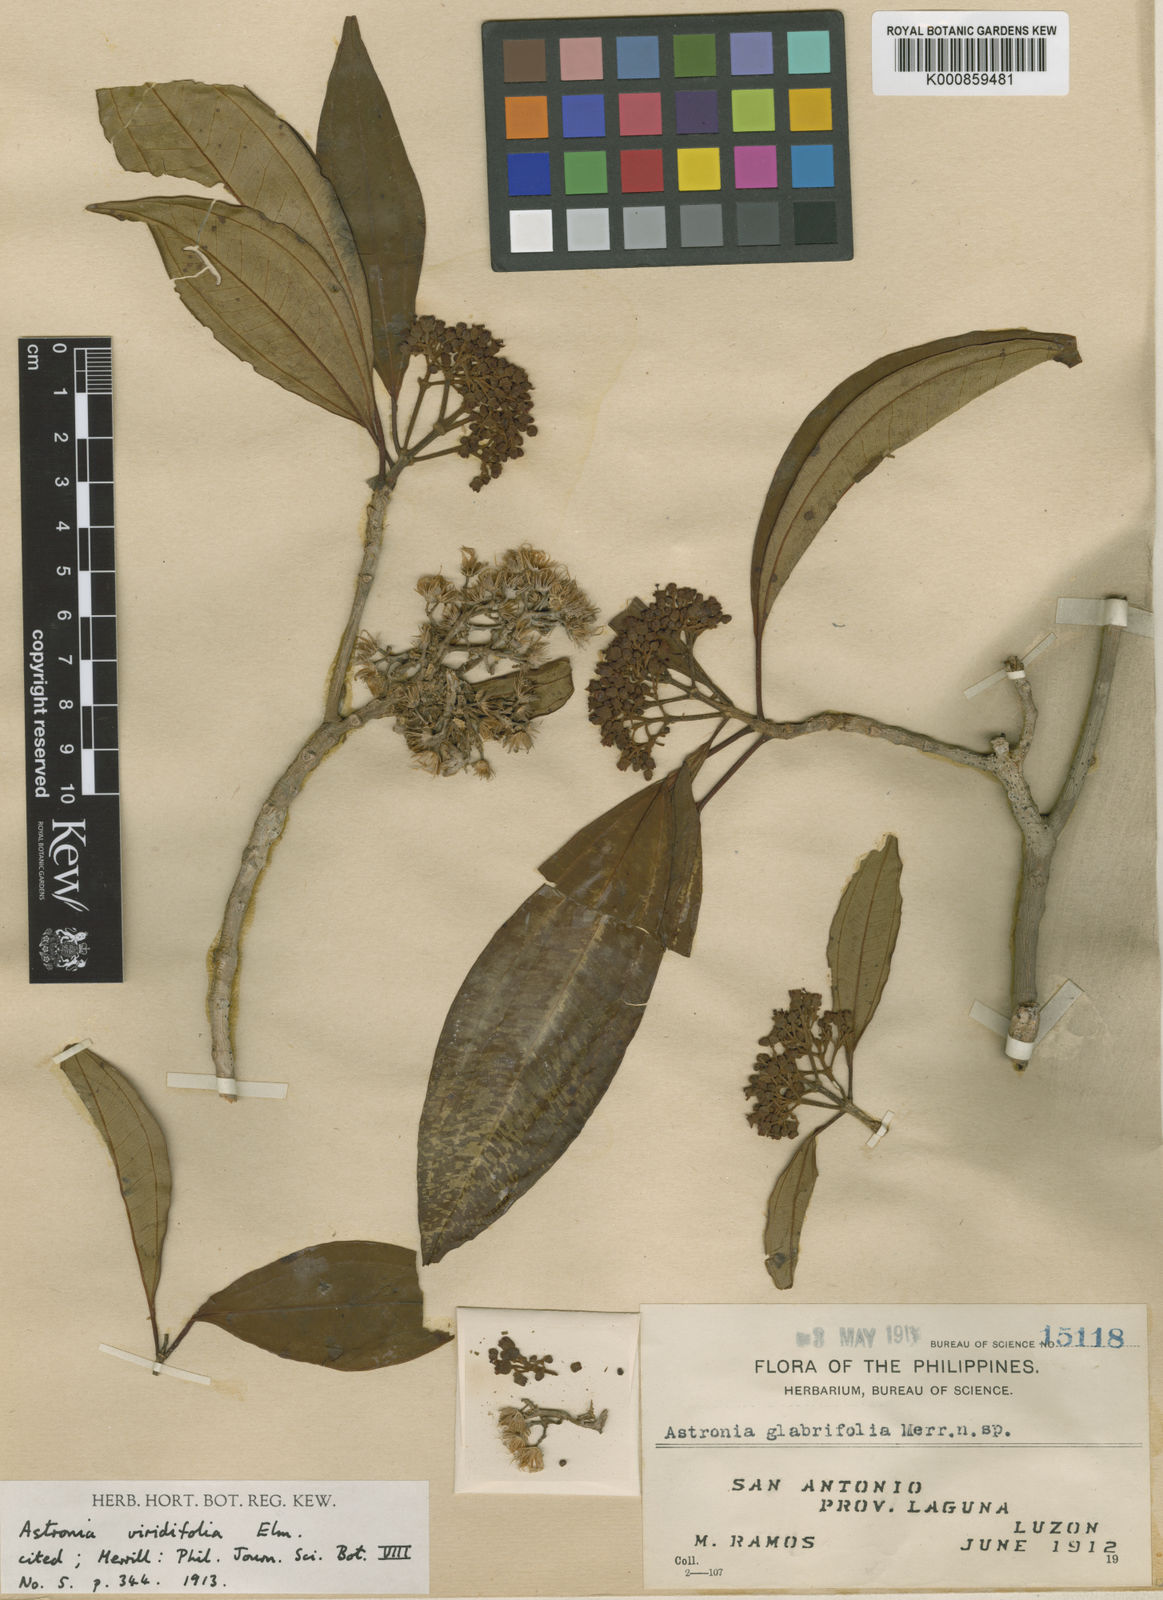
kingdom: Plantae
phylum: Tracheophyta
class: Magnoliopsida
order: Myrtales
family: Melastomataceae
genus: Astronia
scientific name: Astronia viridifolia
